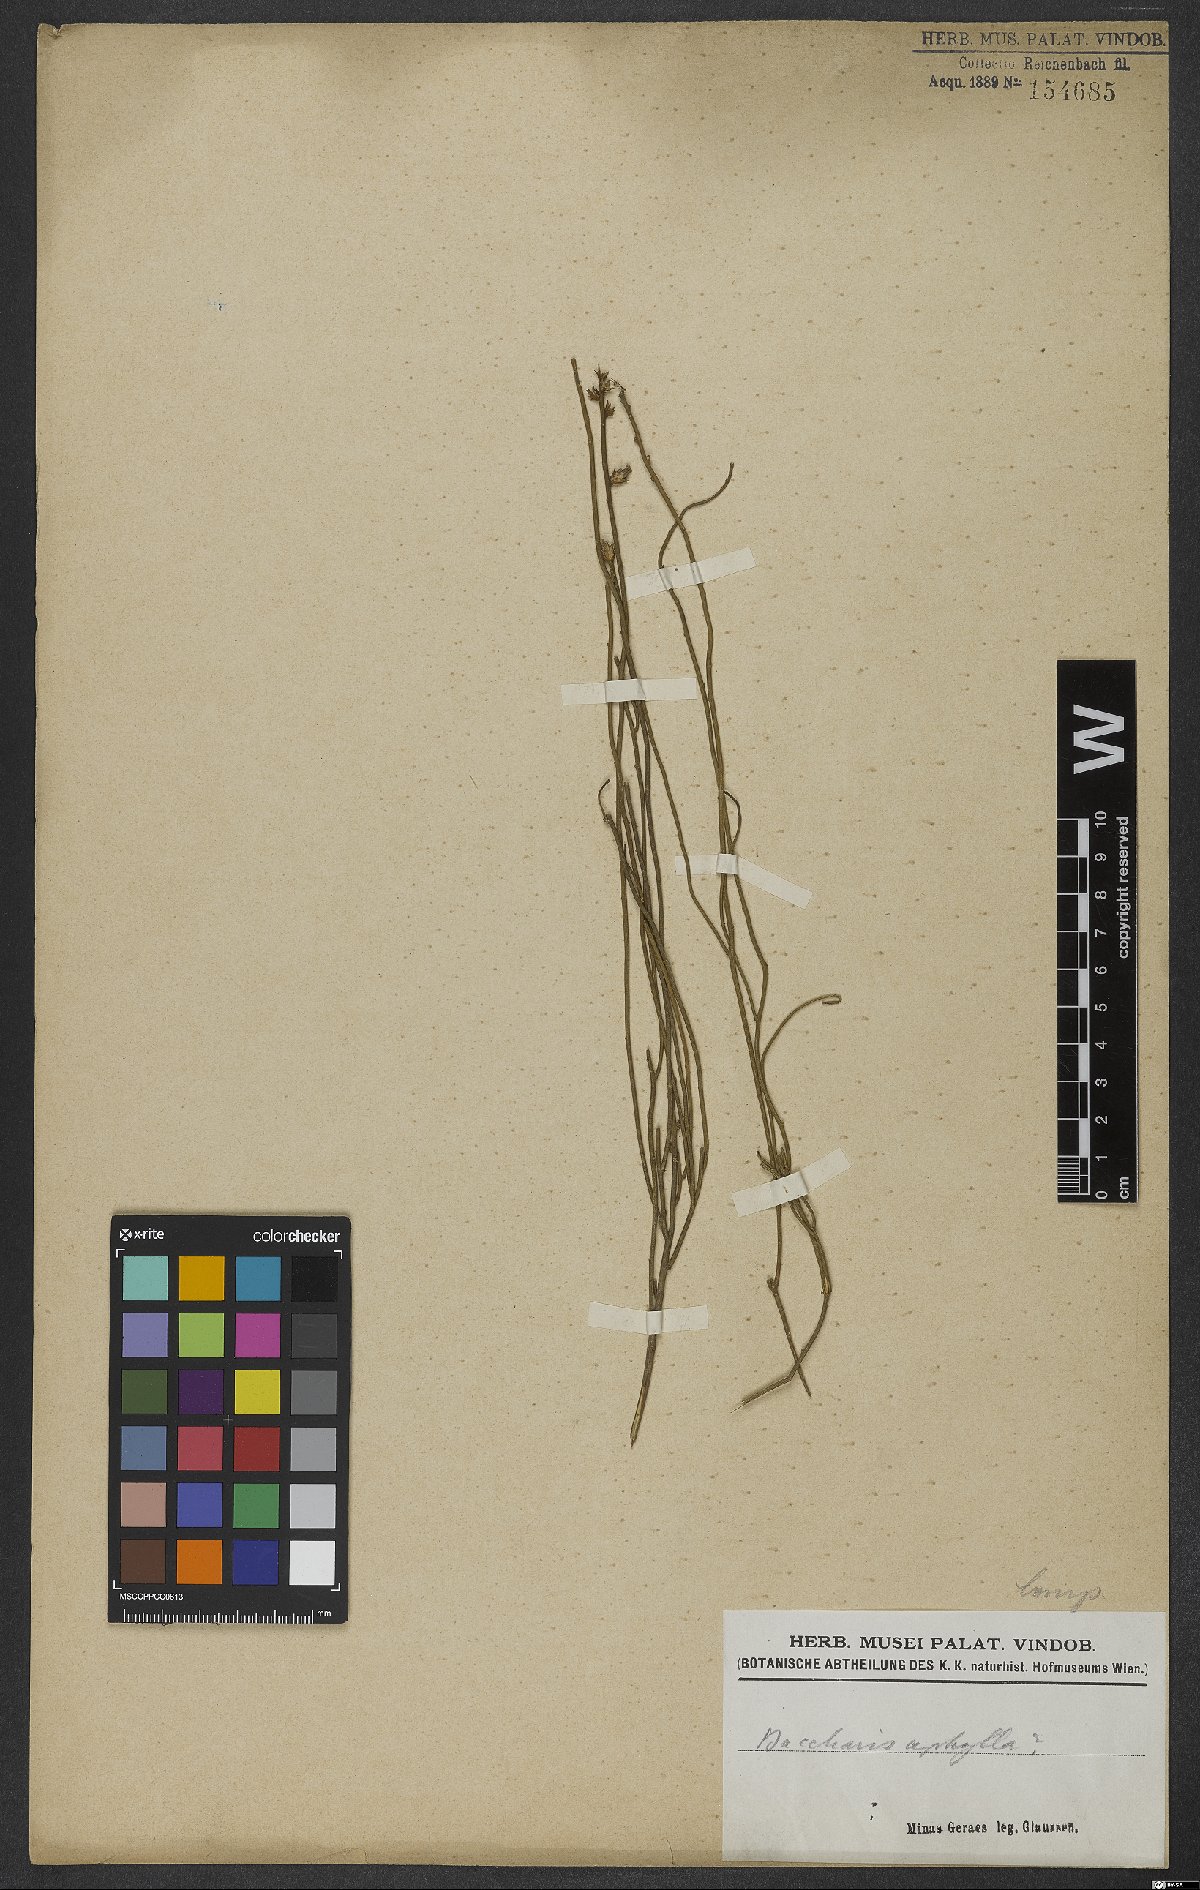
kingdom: Plantae
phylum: Tracheophyta
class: Magnoliopsida
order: Asterales
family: Asteraceae
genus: Baccharis
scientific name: Baccharis aphylla
